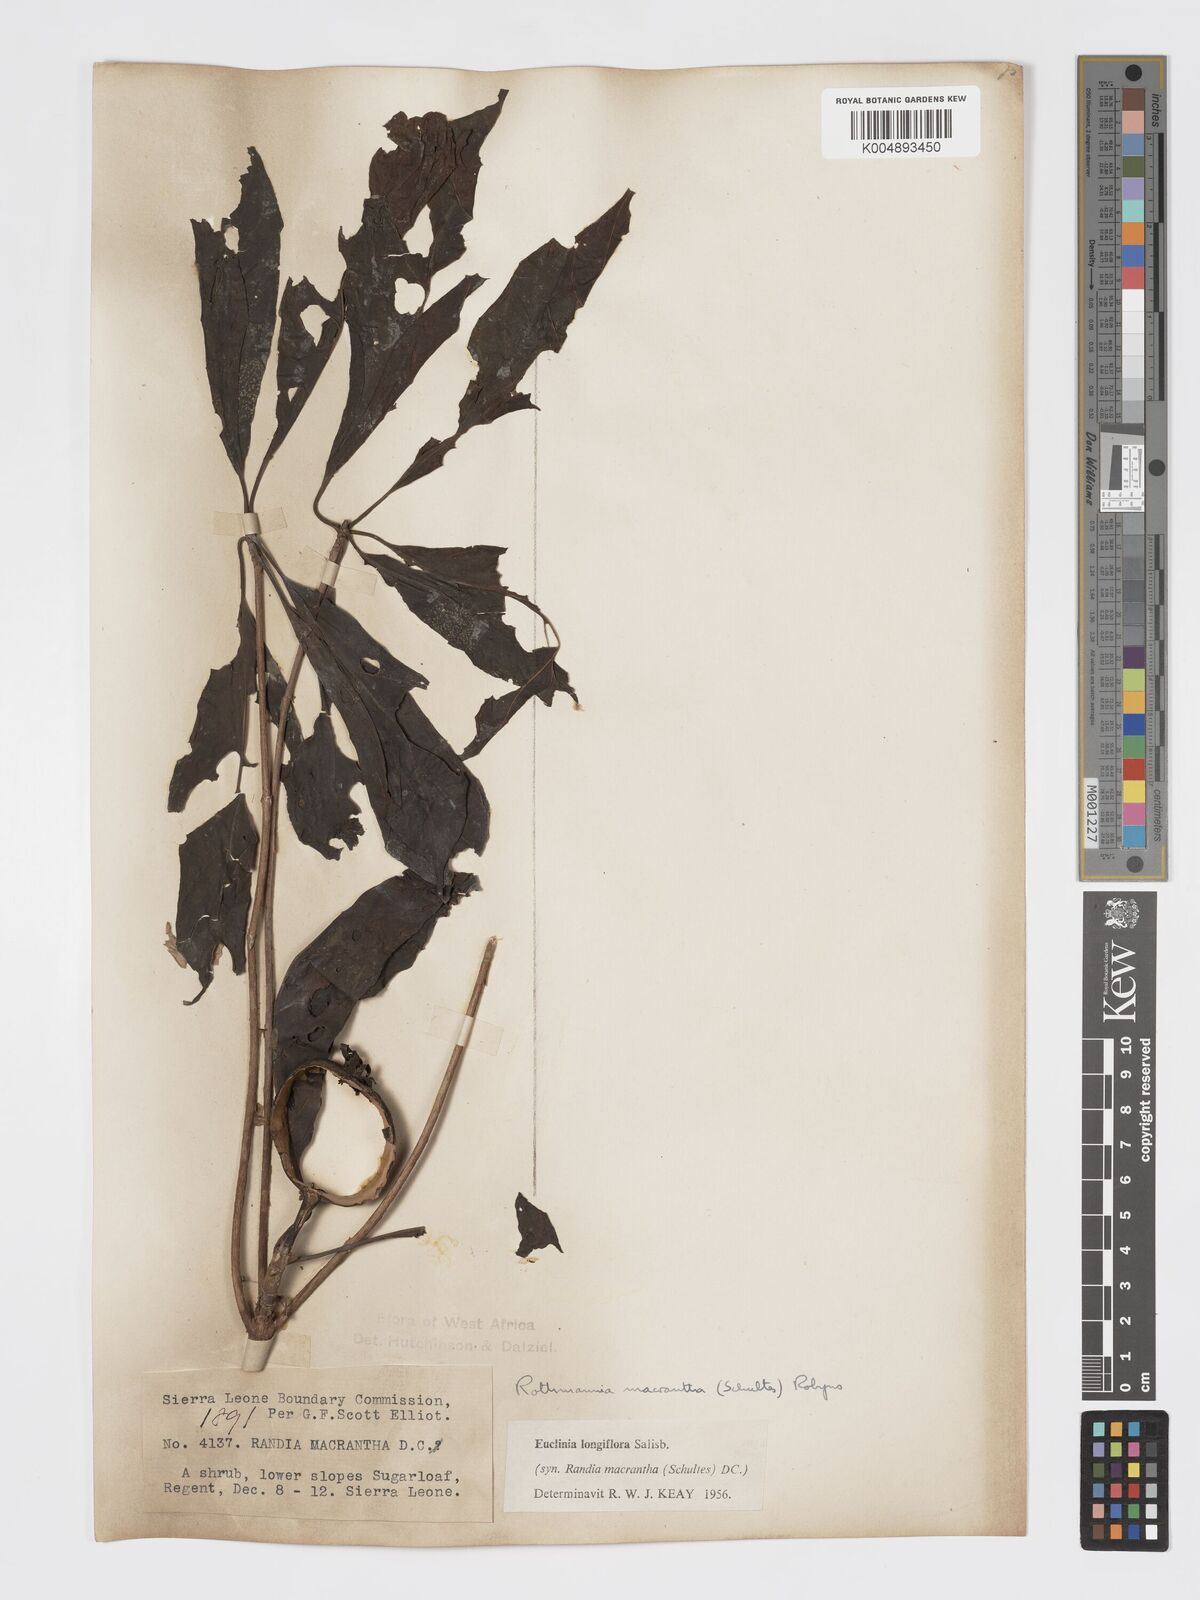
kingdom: Plantae
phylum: Tracheophyta
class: Magnoliopsida
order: Gentianales
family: Rubiaceae
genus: Euclinia
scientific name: Euclinia longiflora
